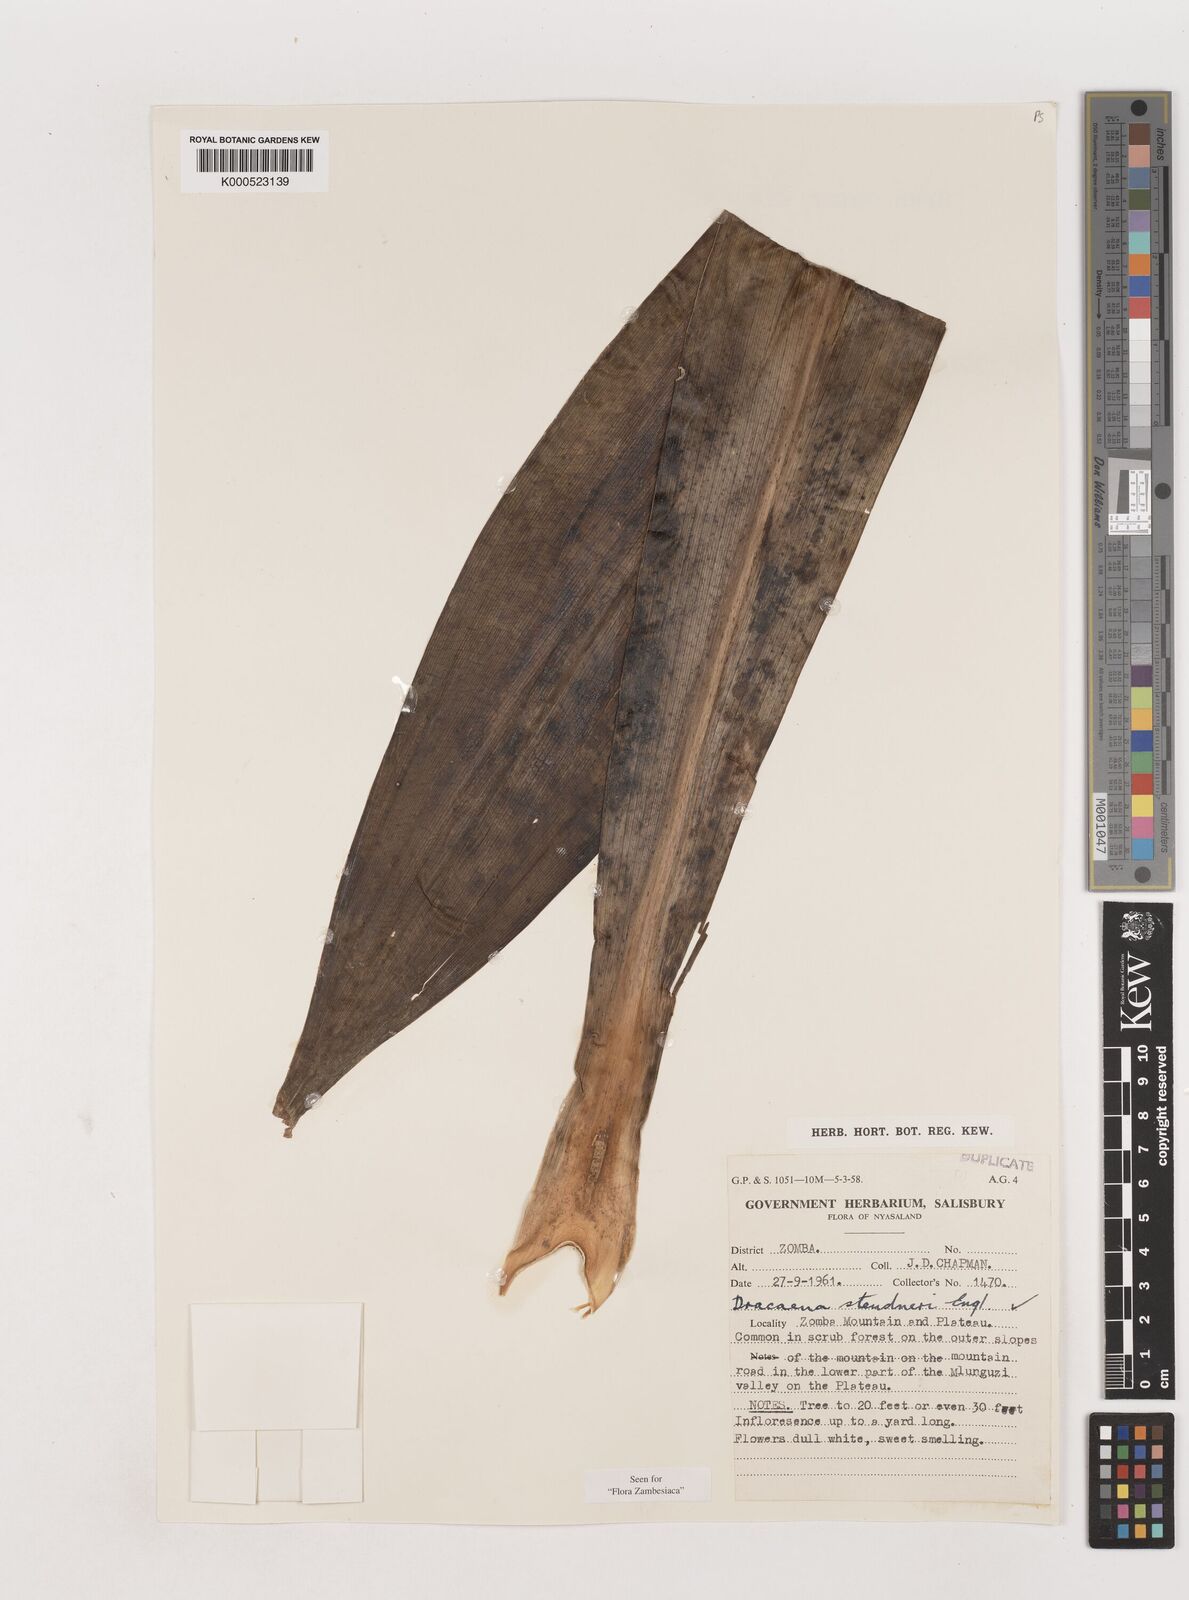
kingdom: Plantae
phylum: Tracheophyta
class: Liliopsida
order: Asparagales
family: Asparagaceae
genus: Dracaena
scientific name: Dracaena steudneri
